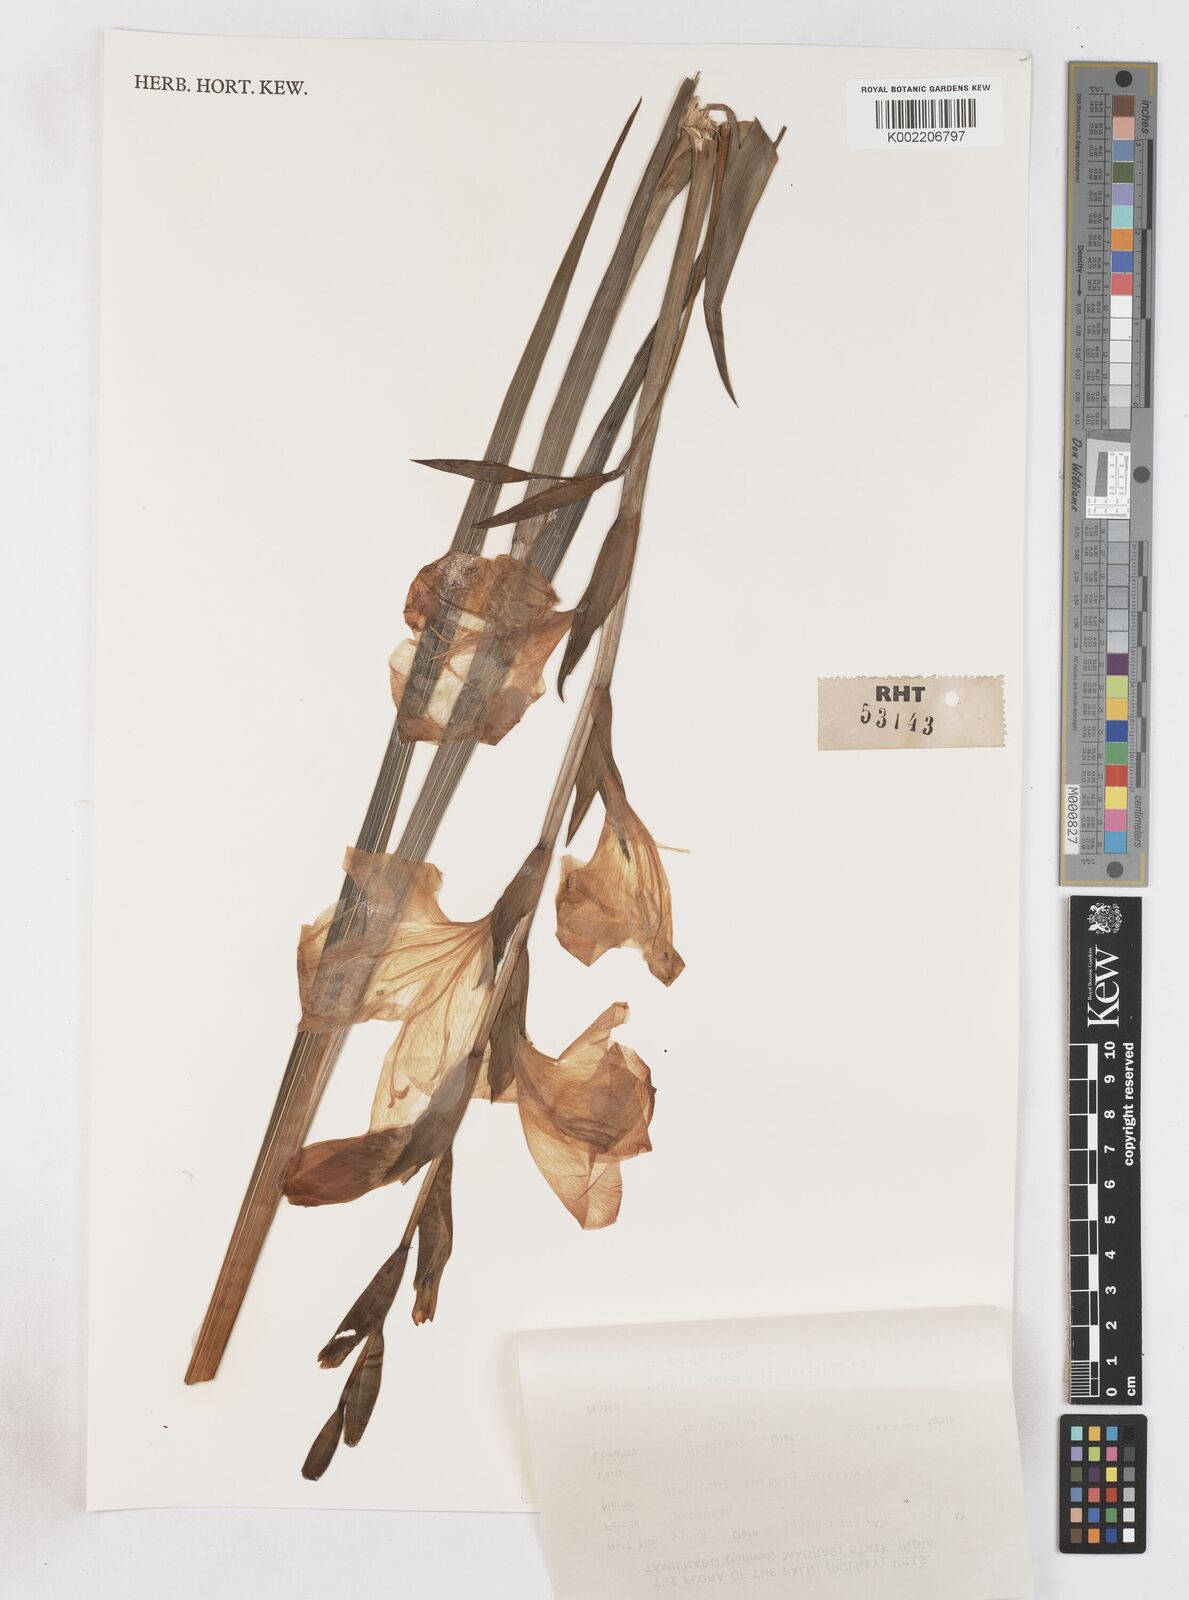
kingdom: Plantae
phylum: Tracheophyta
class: Liliopsida
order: Asparagales
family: Iridaceae
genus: Gladiolus
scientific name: Gladiolus
